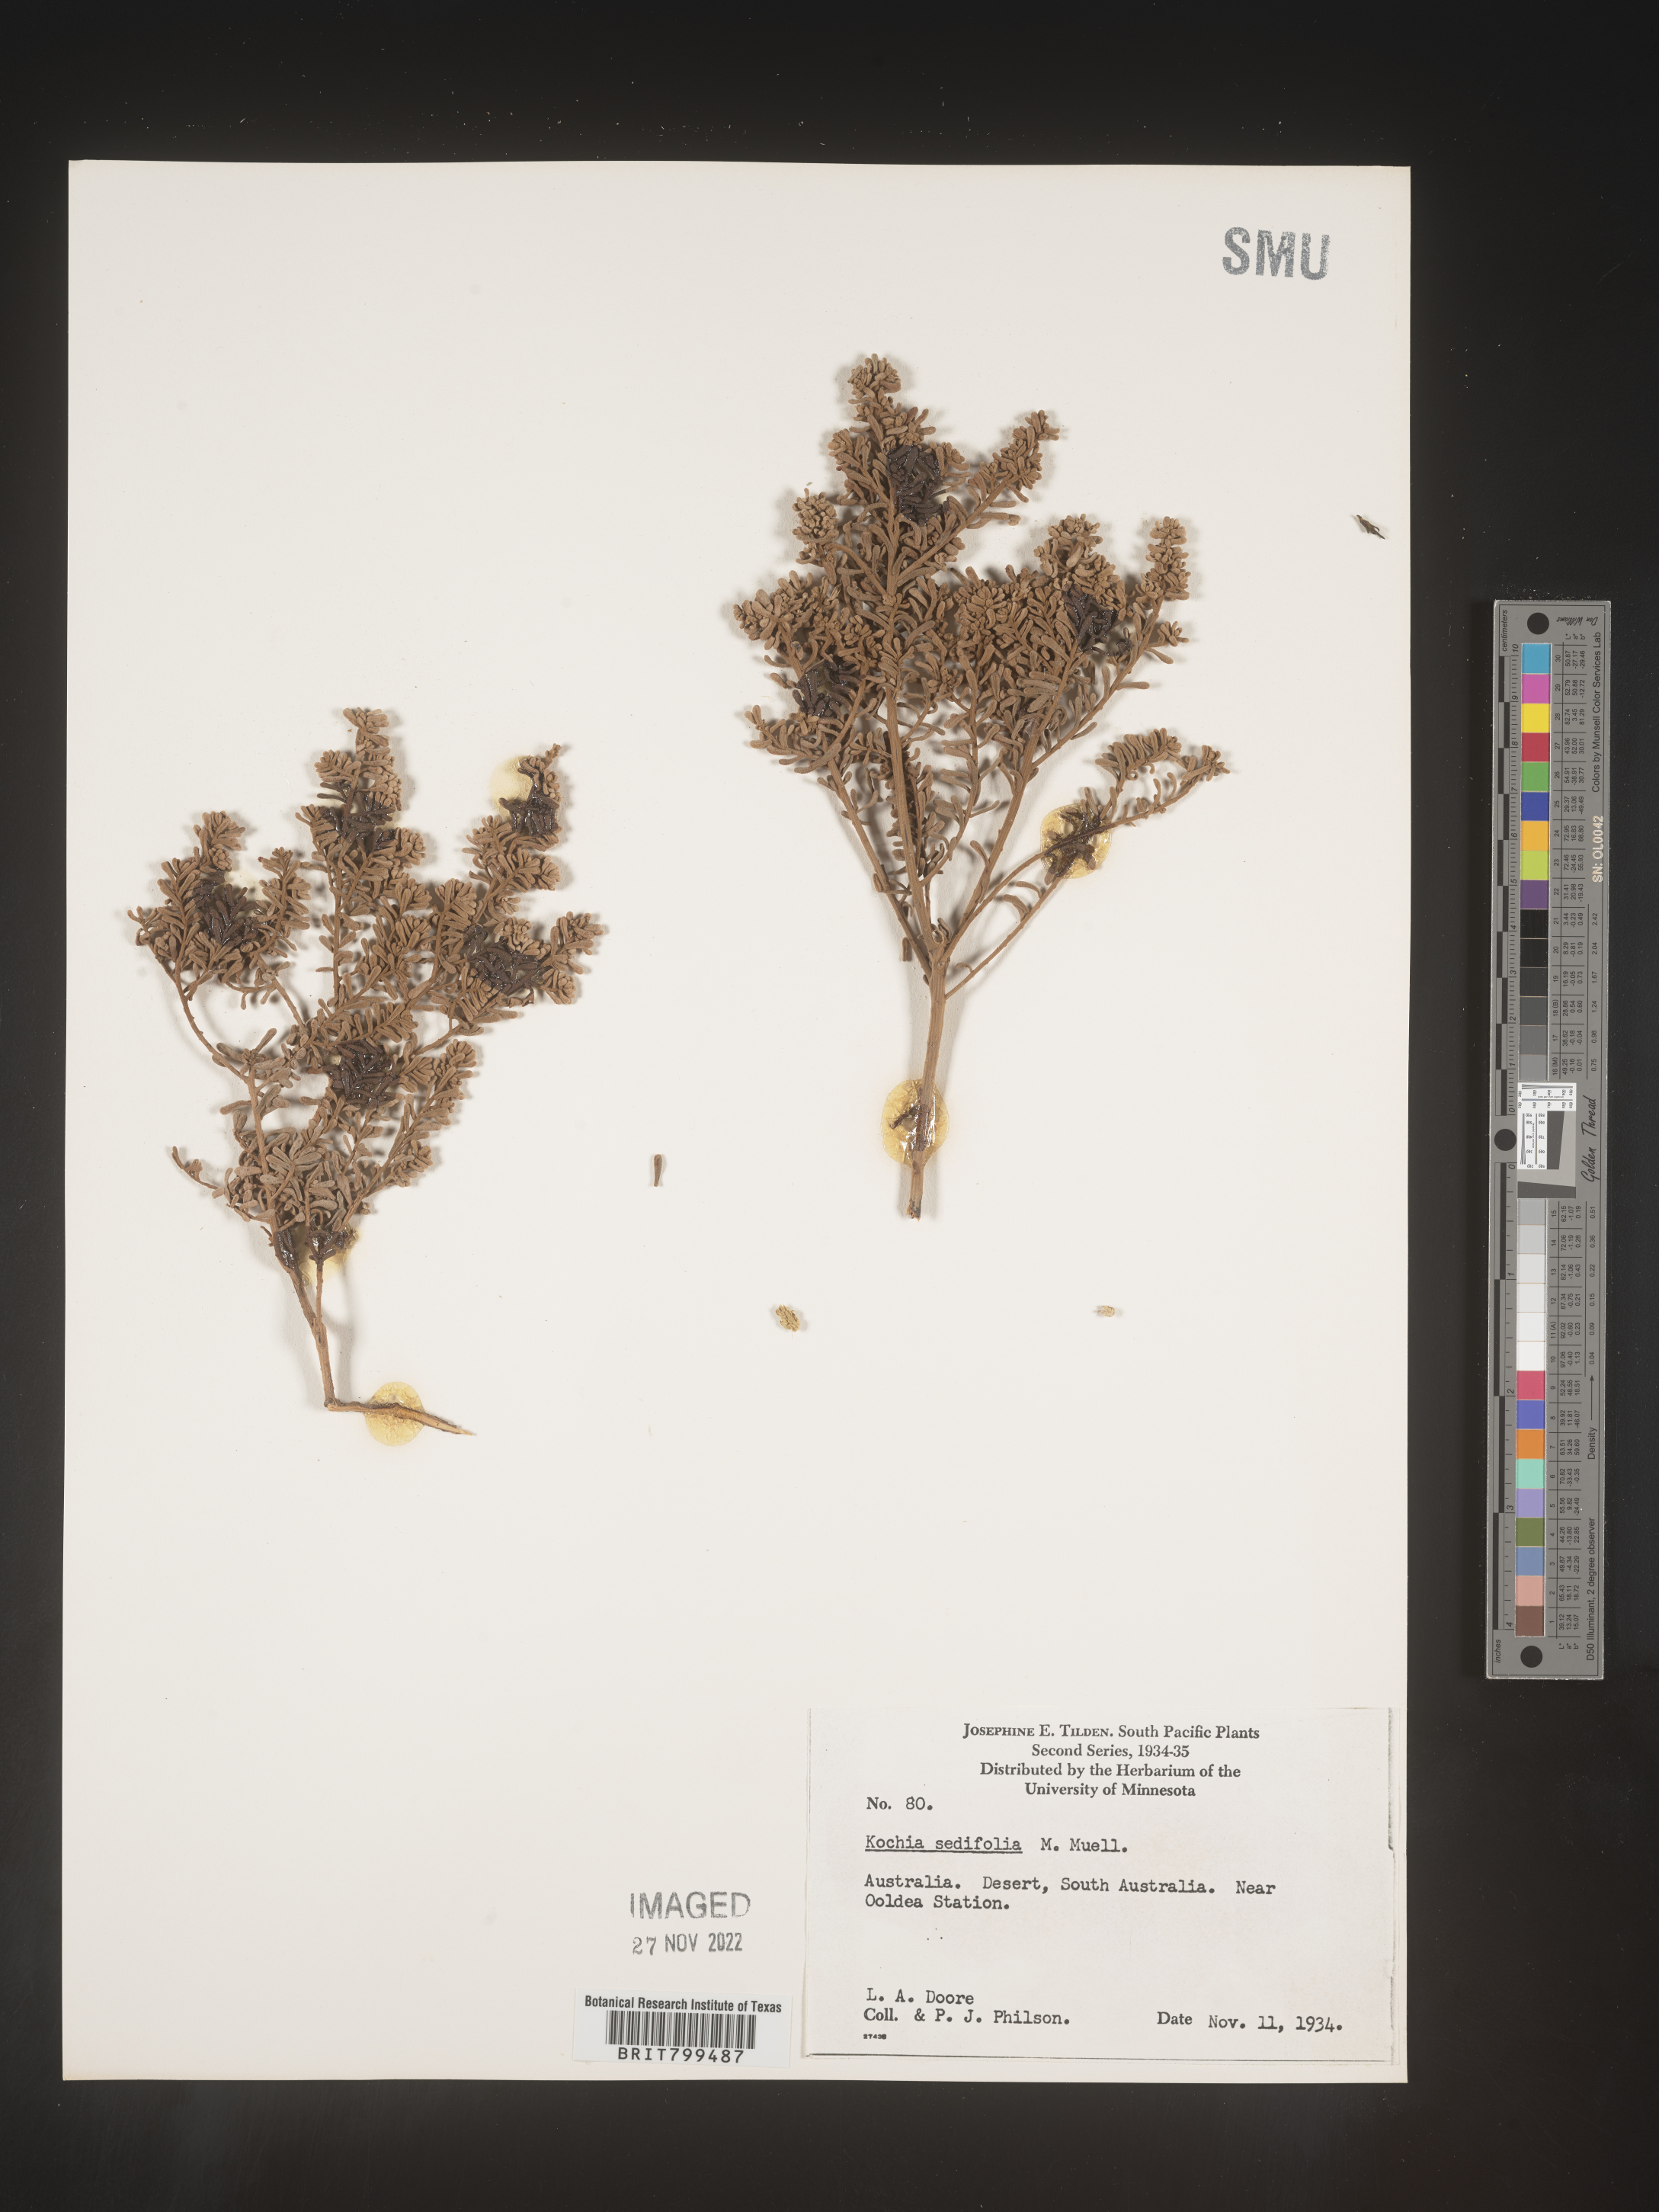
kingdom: Plantae
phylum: Tracheophyta
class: Magnoliopsida
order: Caryophyllales
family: Amaranthaceae
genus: Bassia
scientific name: Bassia
